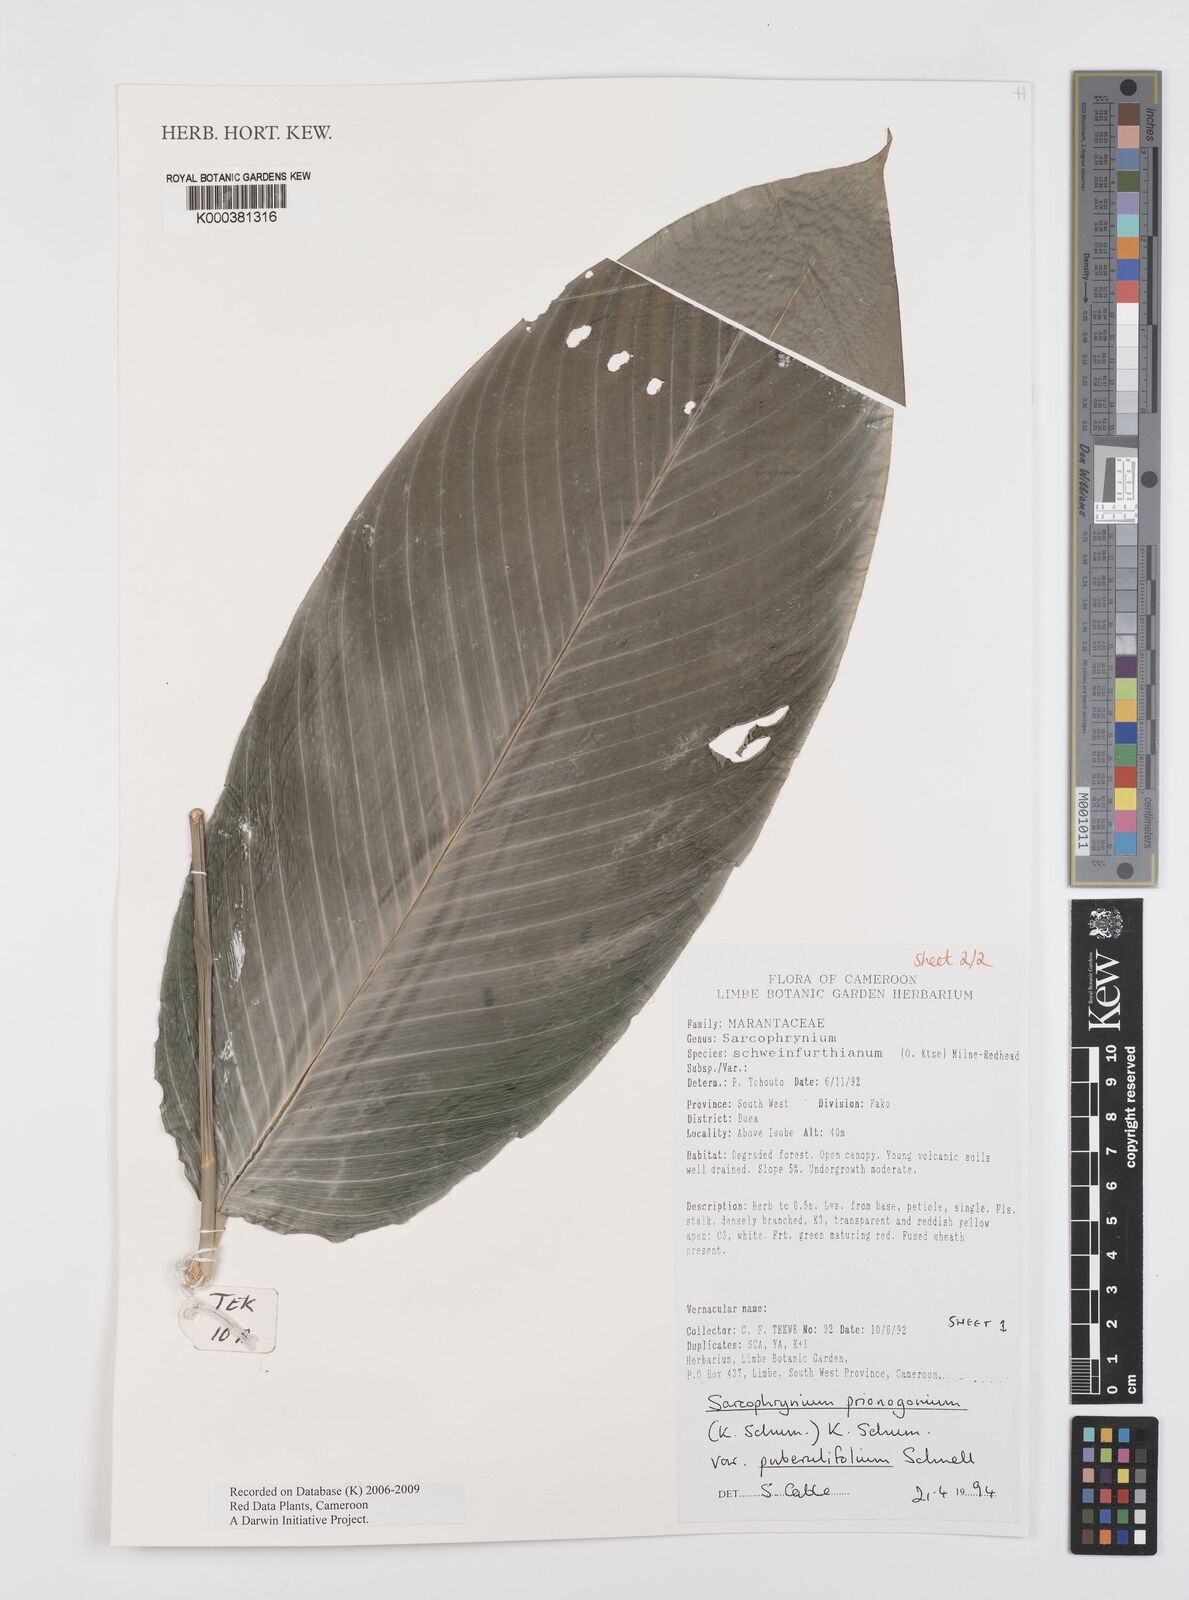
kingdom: Plantae
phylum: Tracheophyta
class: Liliopsida
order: Zingiberales
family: Marantaceae
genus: Sarcophrynium
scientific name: Sarcophrynium prionogonium
